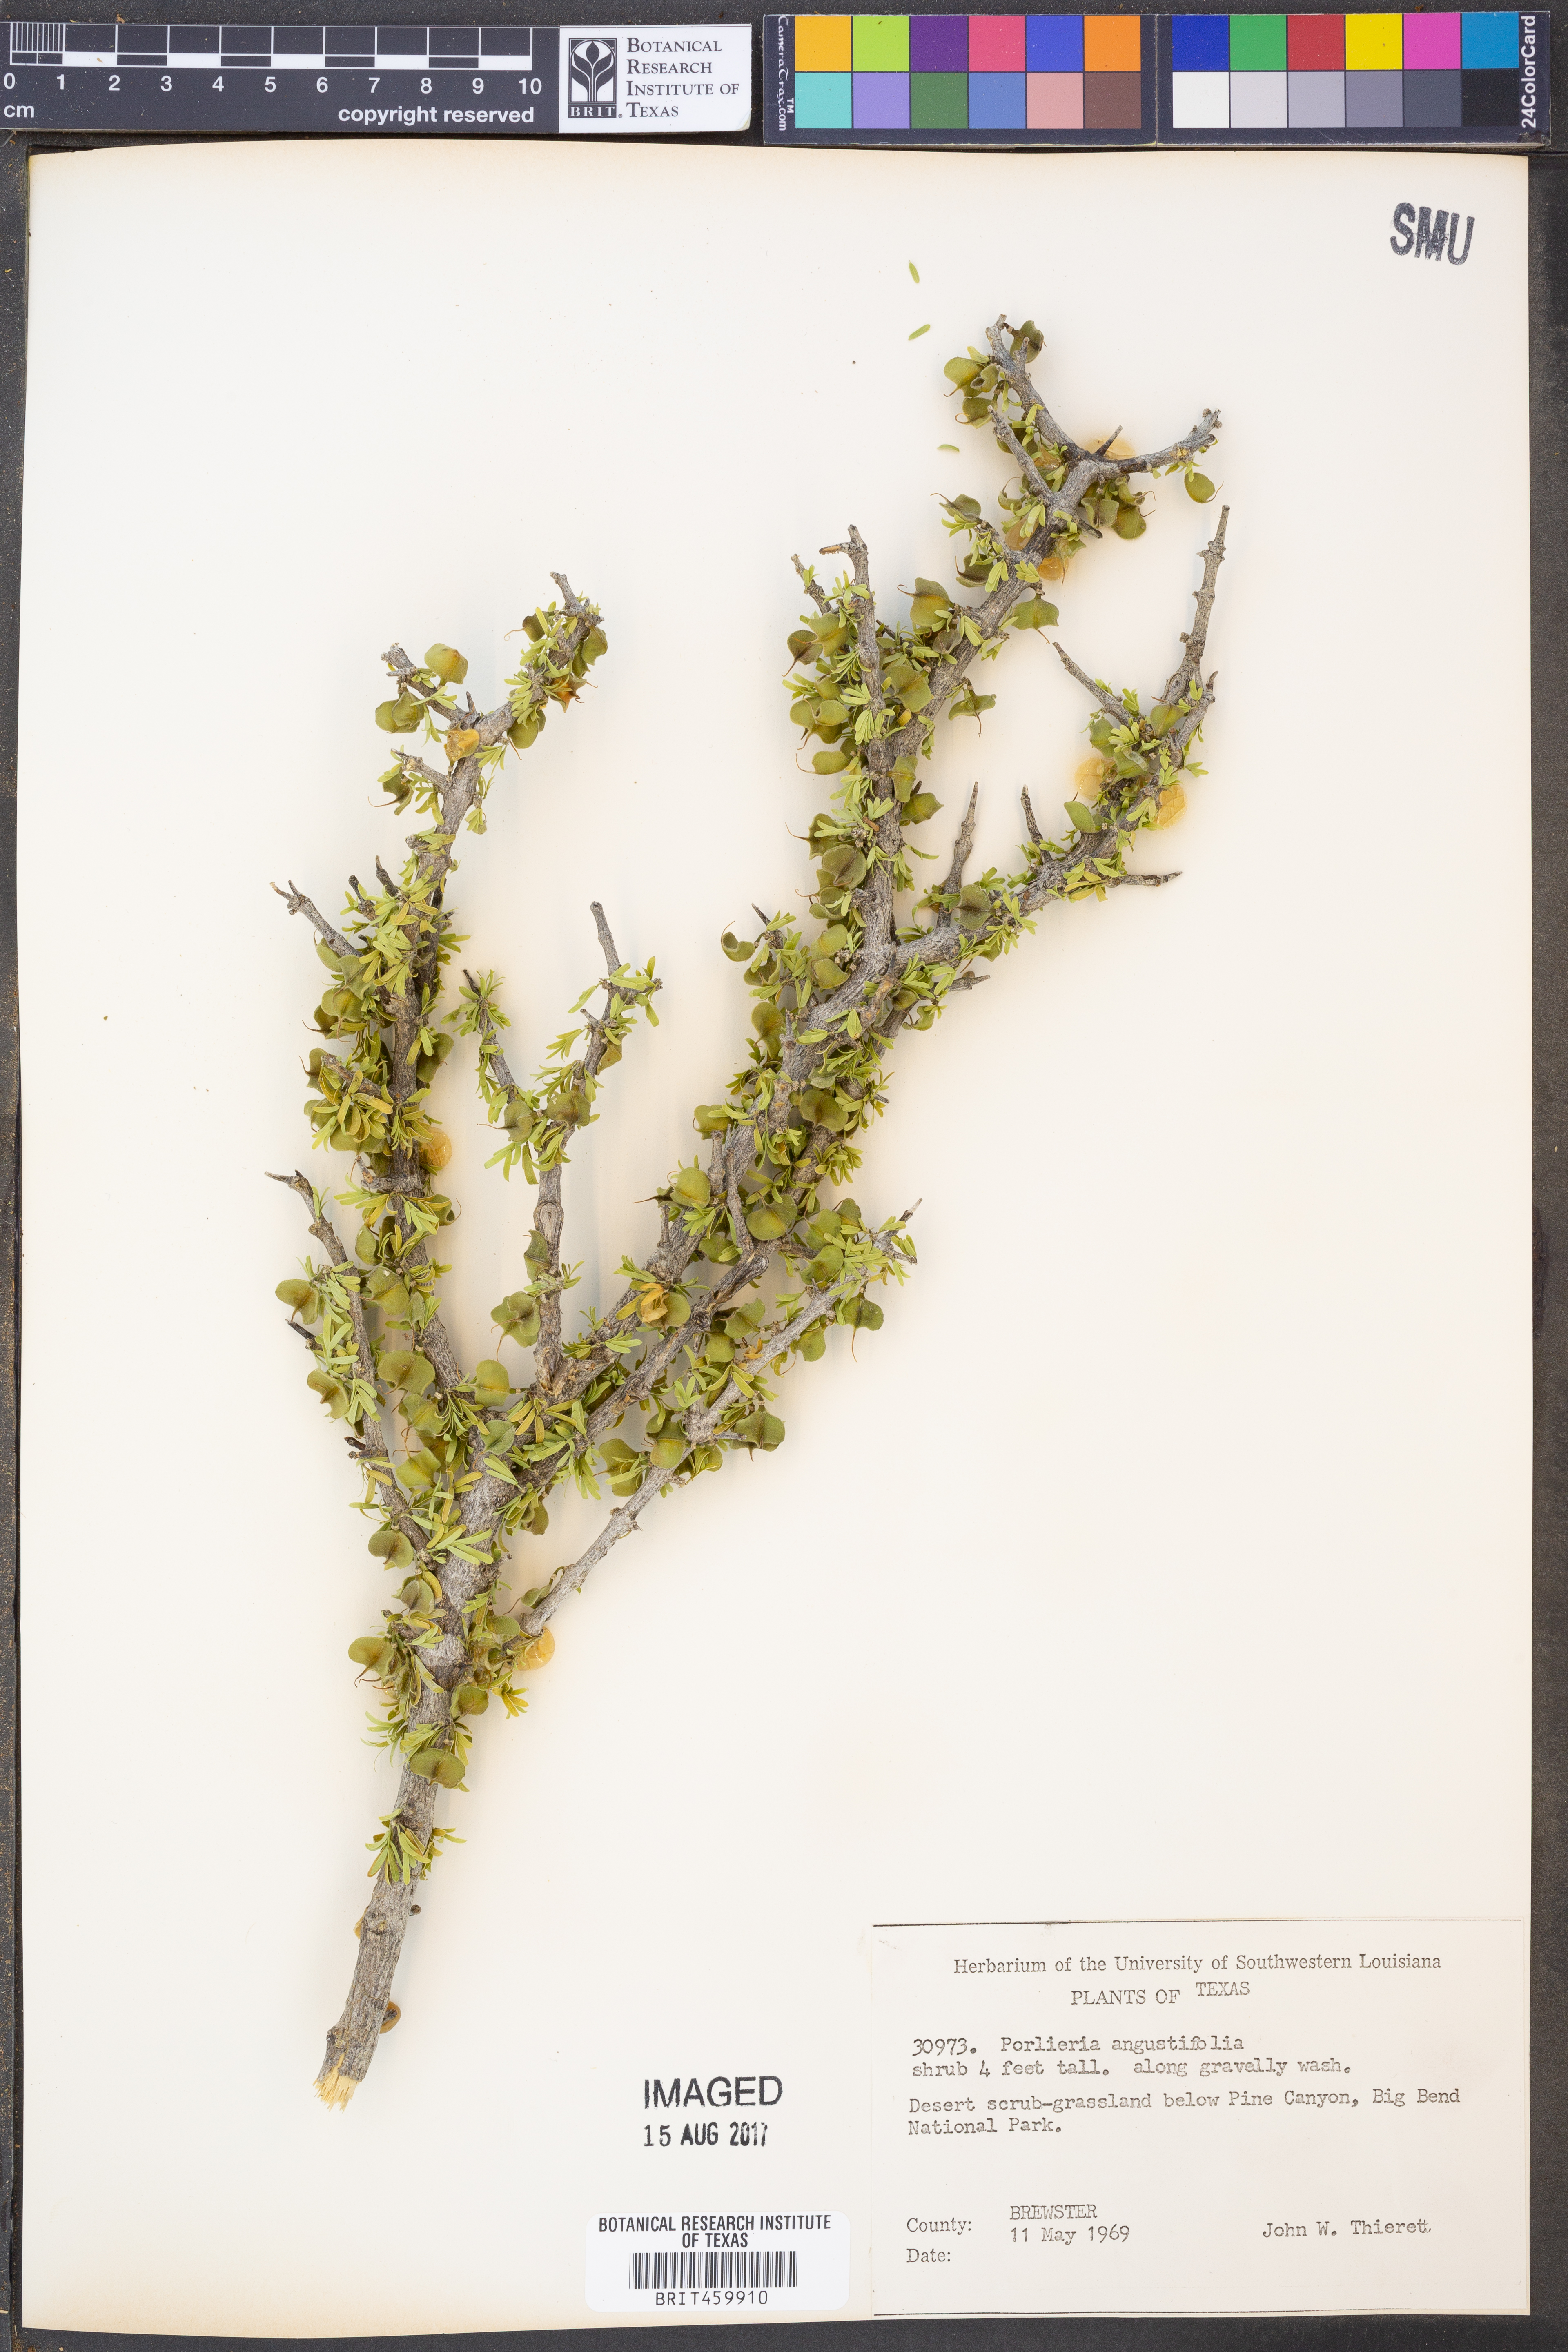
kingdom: Plantae
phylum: Tracheophyta
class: Magnoliopsida
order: Zygophyllales
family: Zygophyllaceae
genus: Porlieria
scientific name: Porlieria angustifolia
